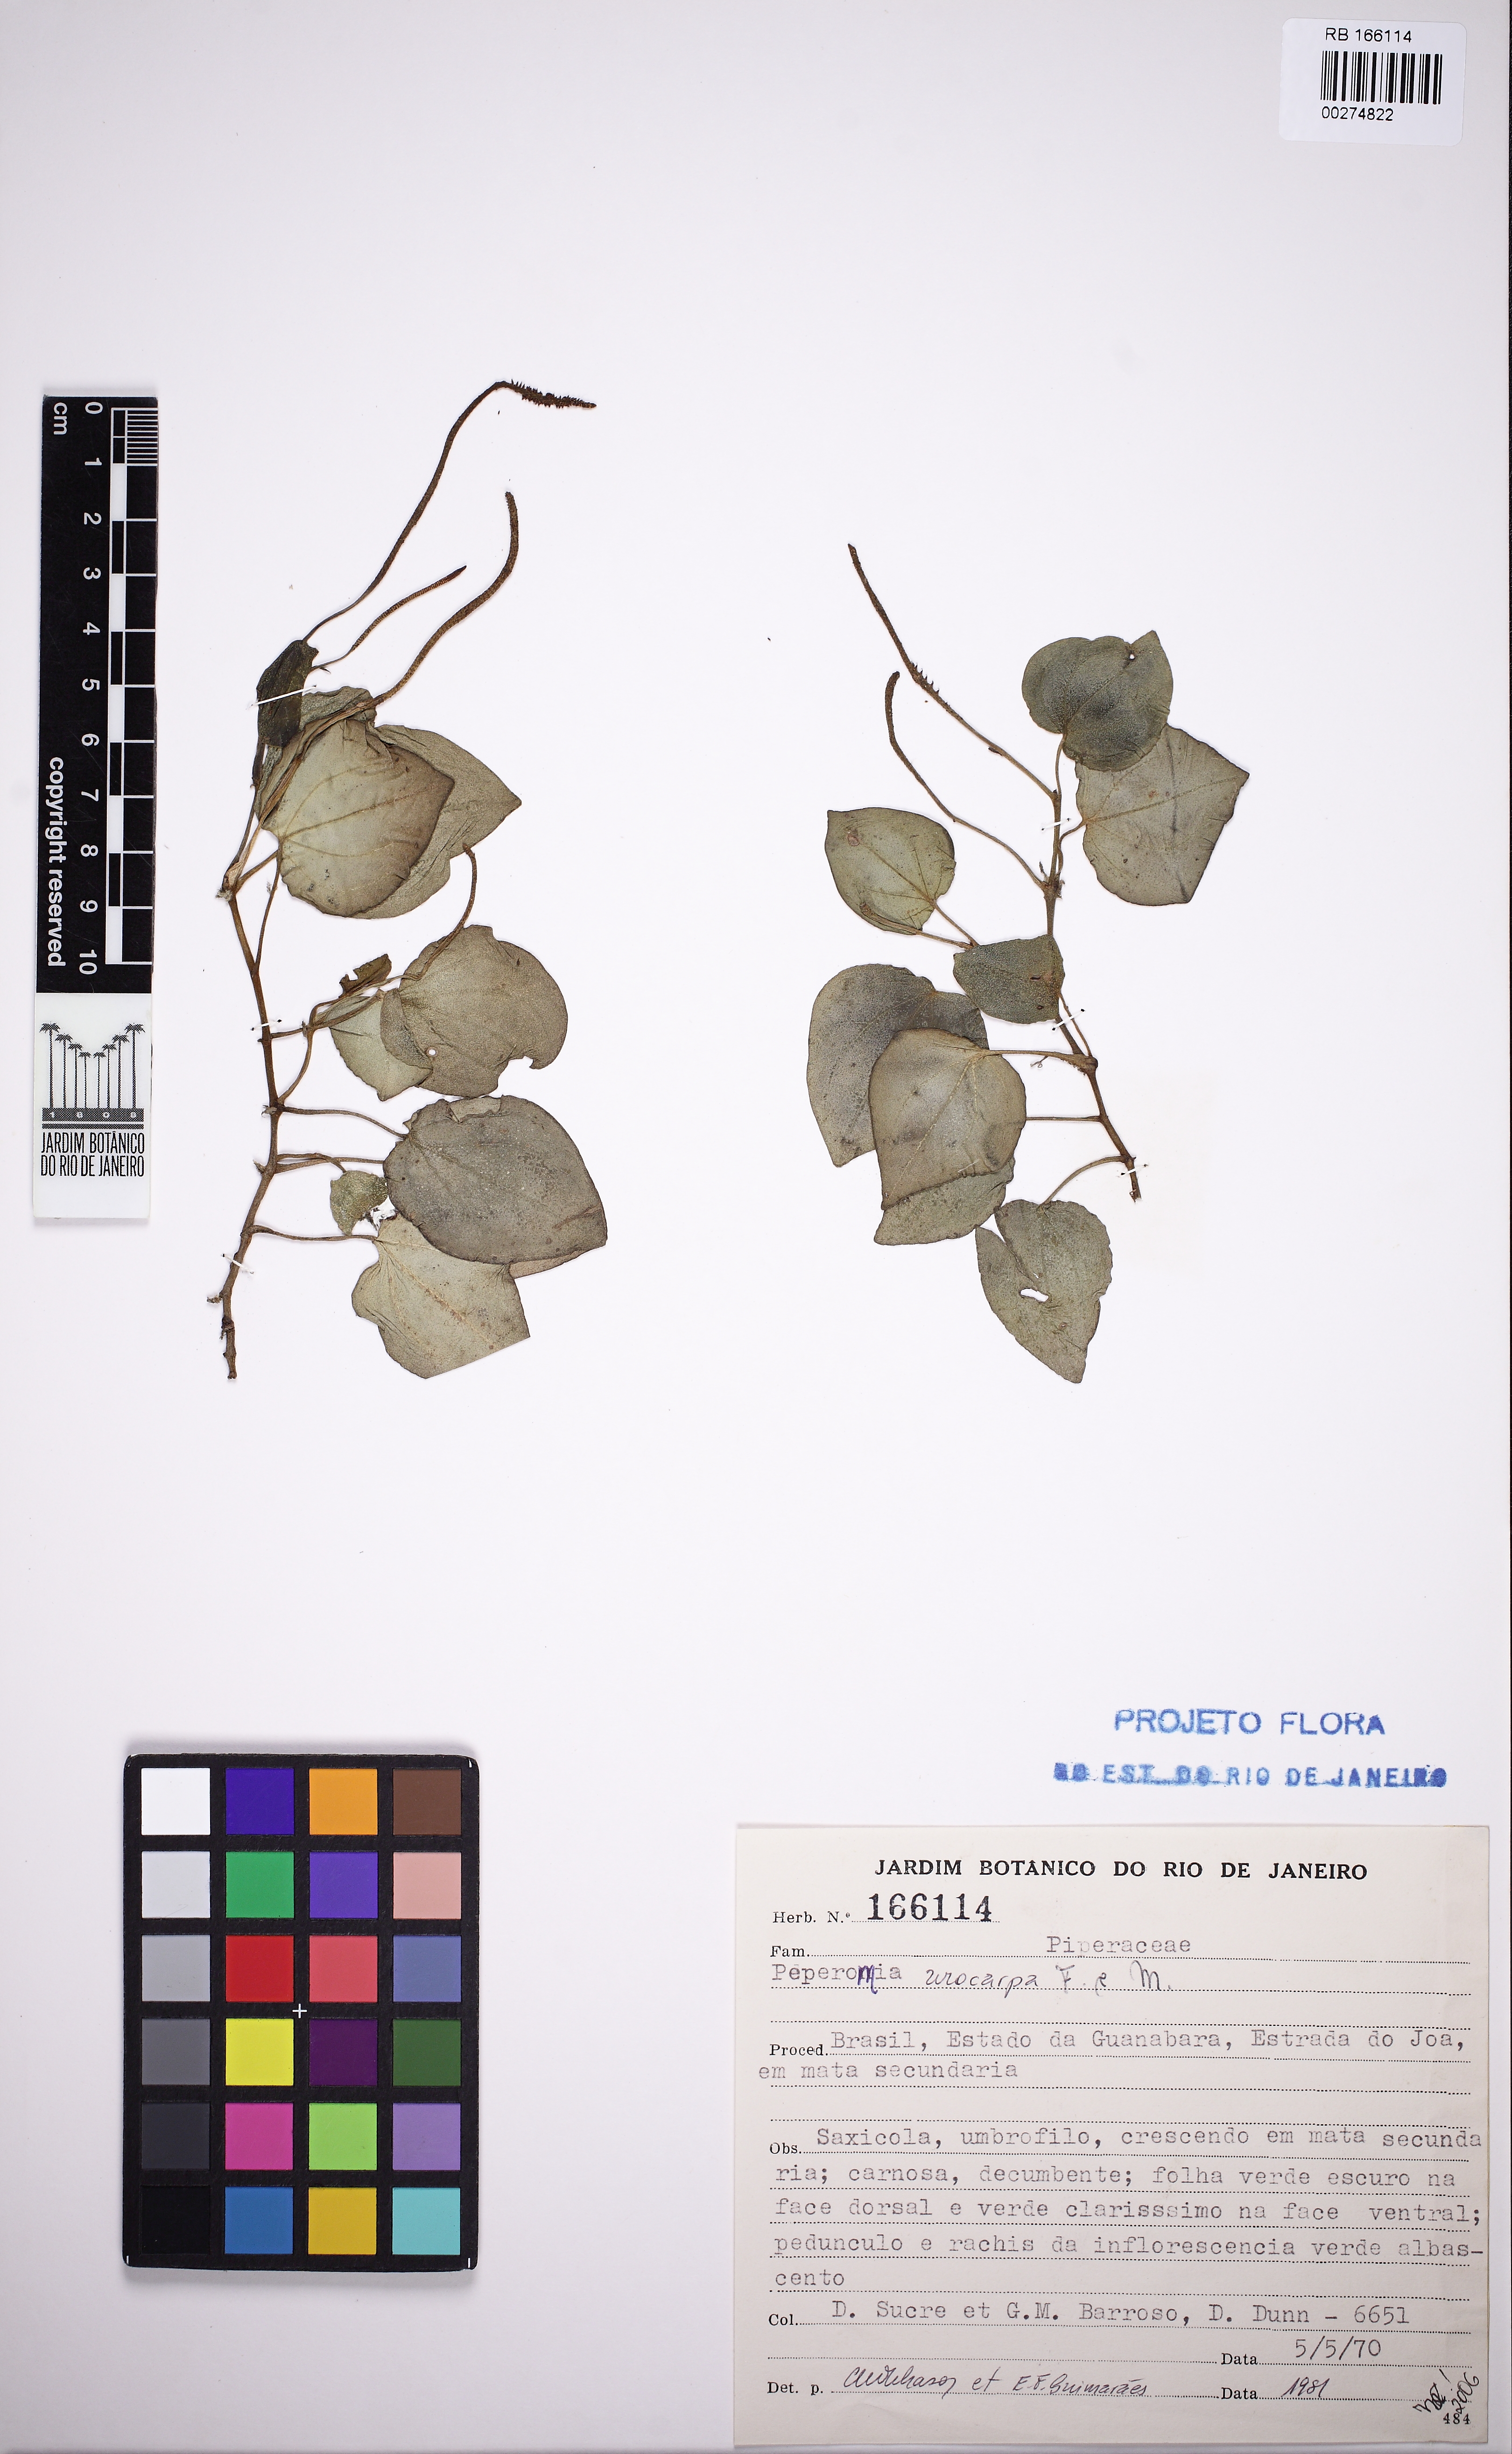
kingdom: Plantae
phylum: Tracheophyta
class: Magnoliopsida
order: Piperales
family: Piperaceae
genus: Peperomia
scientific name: Peperomia urocarpa
